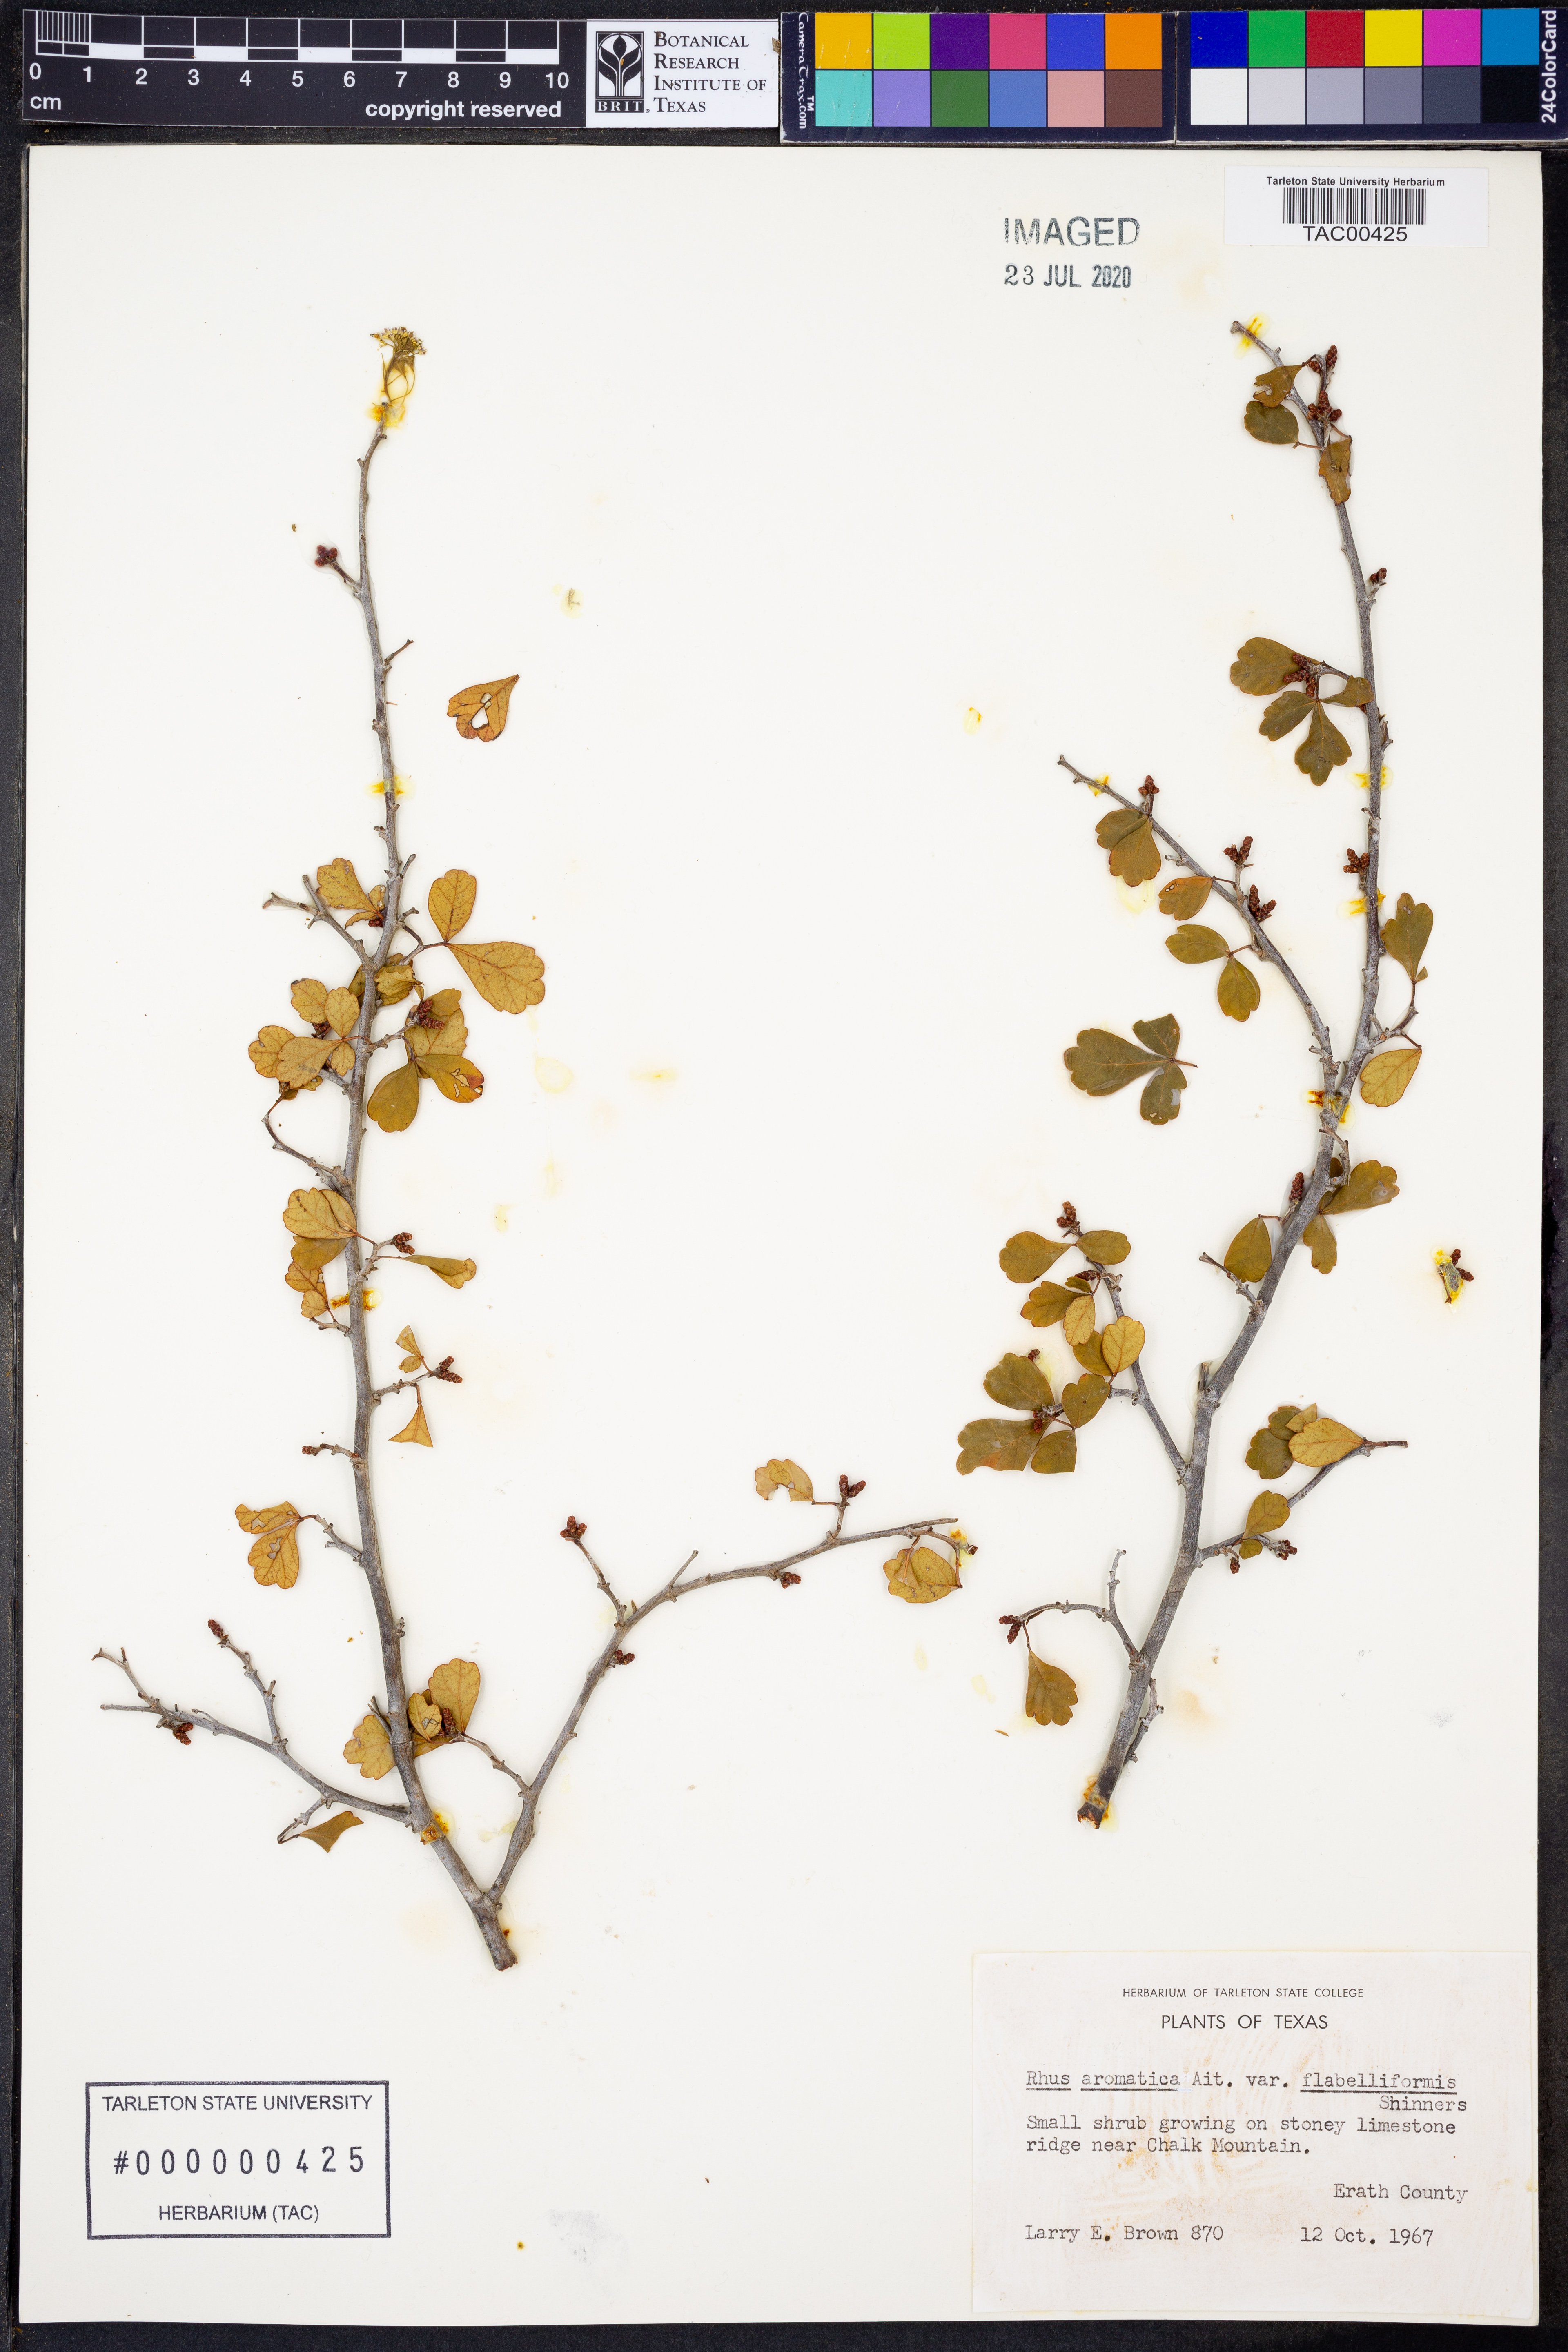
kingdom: Plantae
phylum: Tracheophyta
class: Magnoliopsida
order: Sapindales
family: Anacardiaceae
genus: Rhus
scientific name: Rhus trilobata
